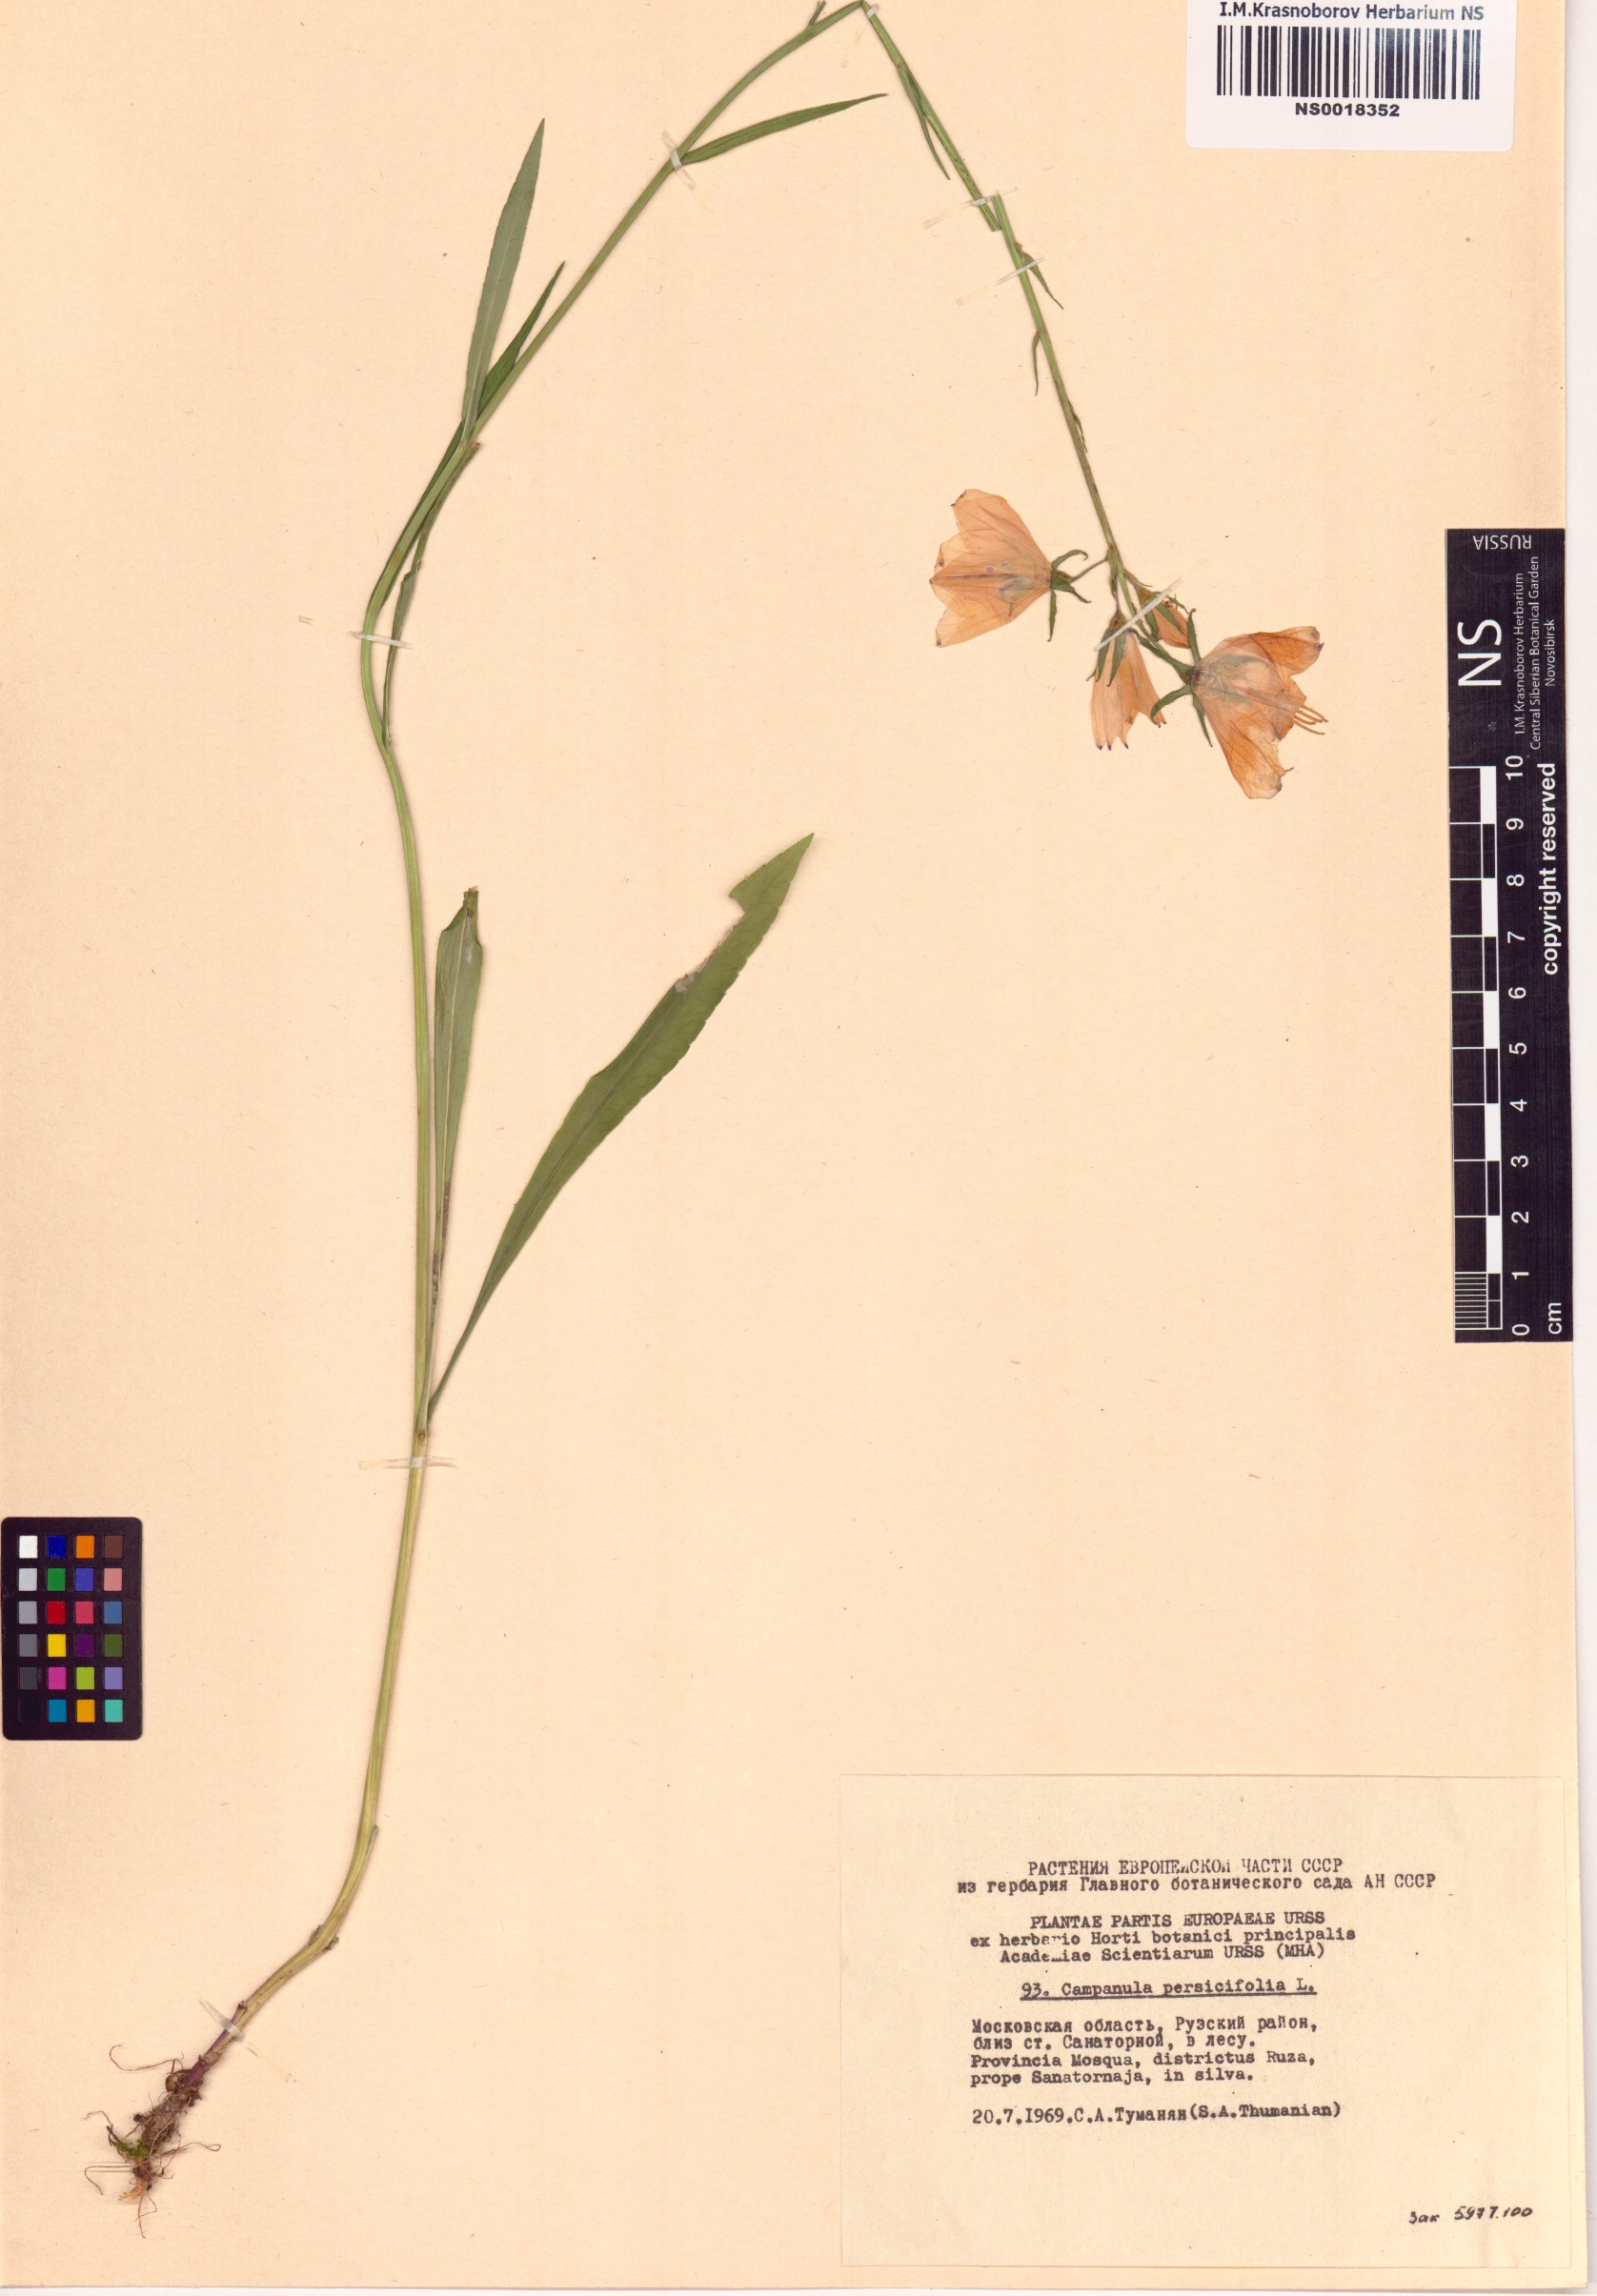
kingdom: Plantae
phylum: Tracheophyta
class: Magnoliopsida
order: Asterales
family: Campanulaceae
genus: Campanula
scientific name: Campanula persicifolia
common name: Peach-leaved bellflower
